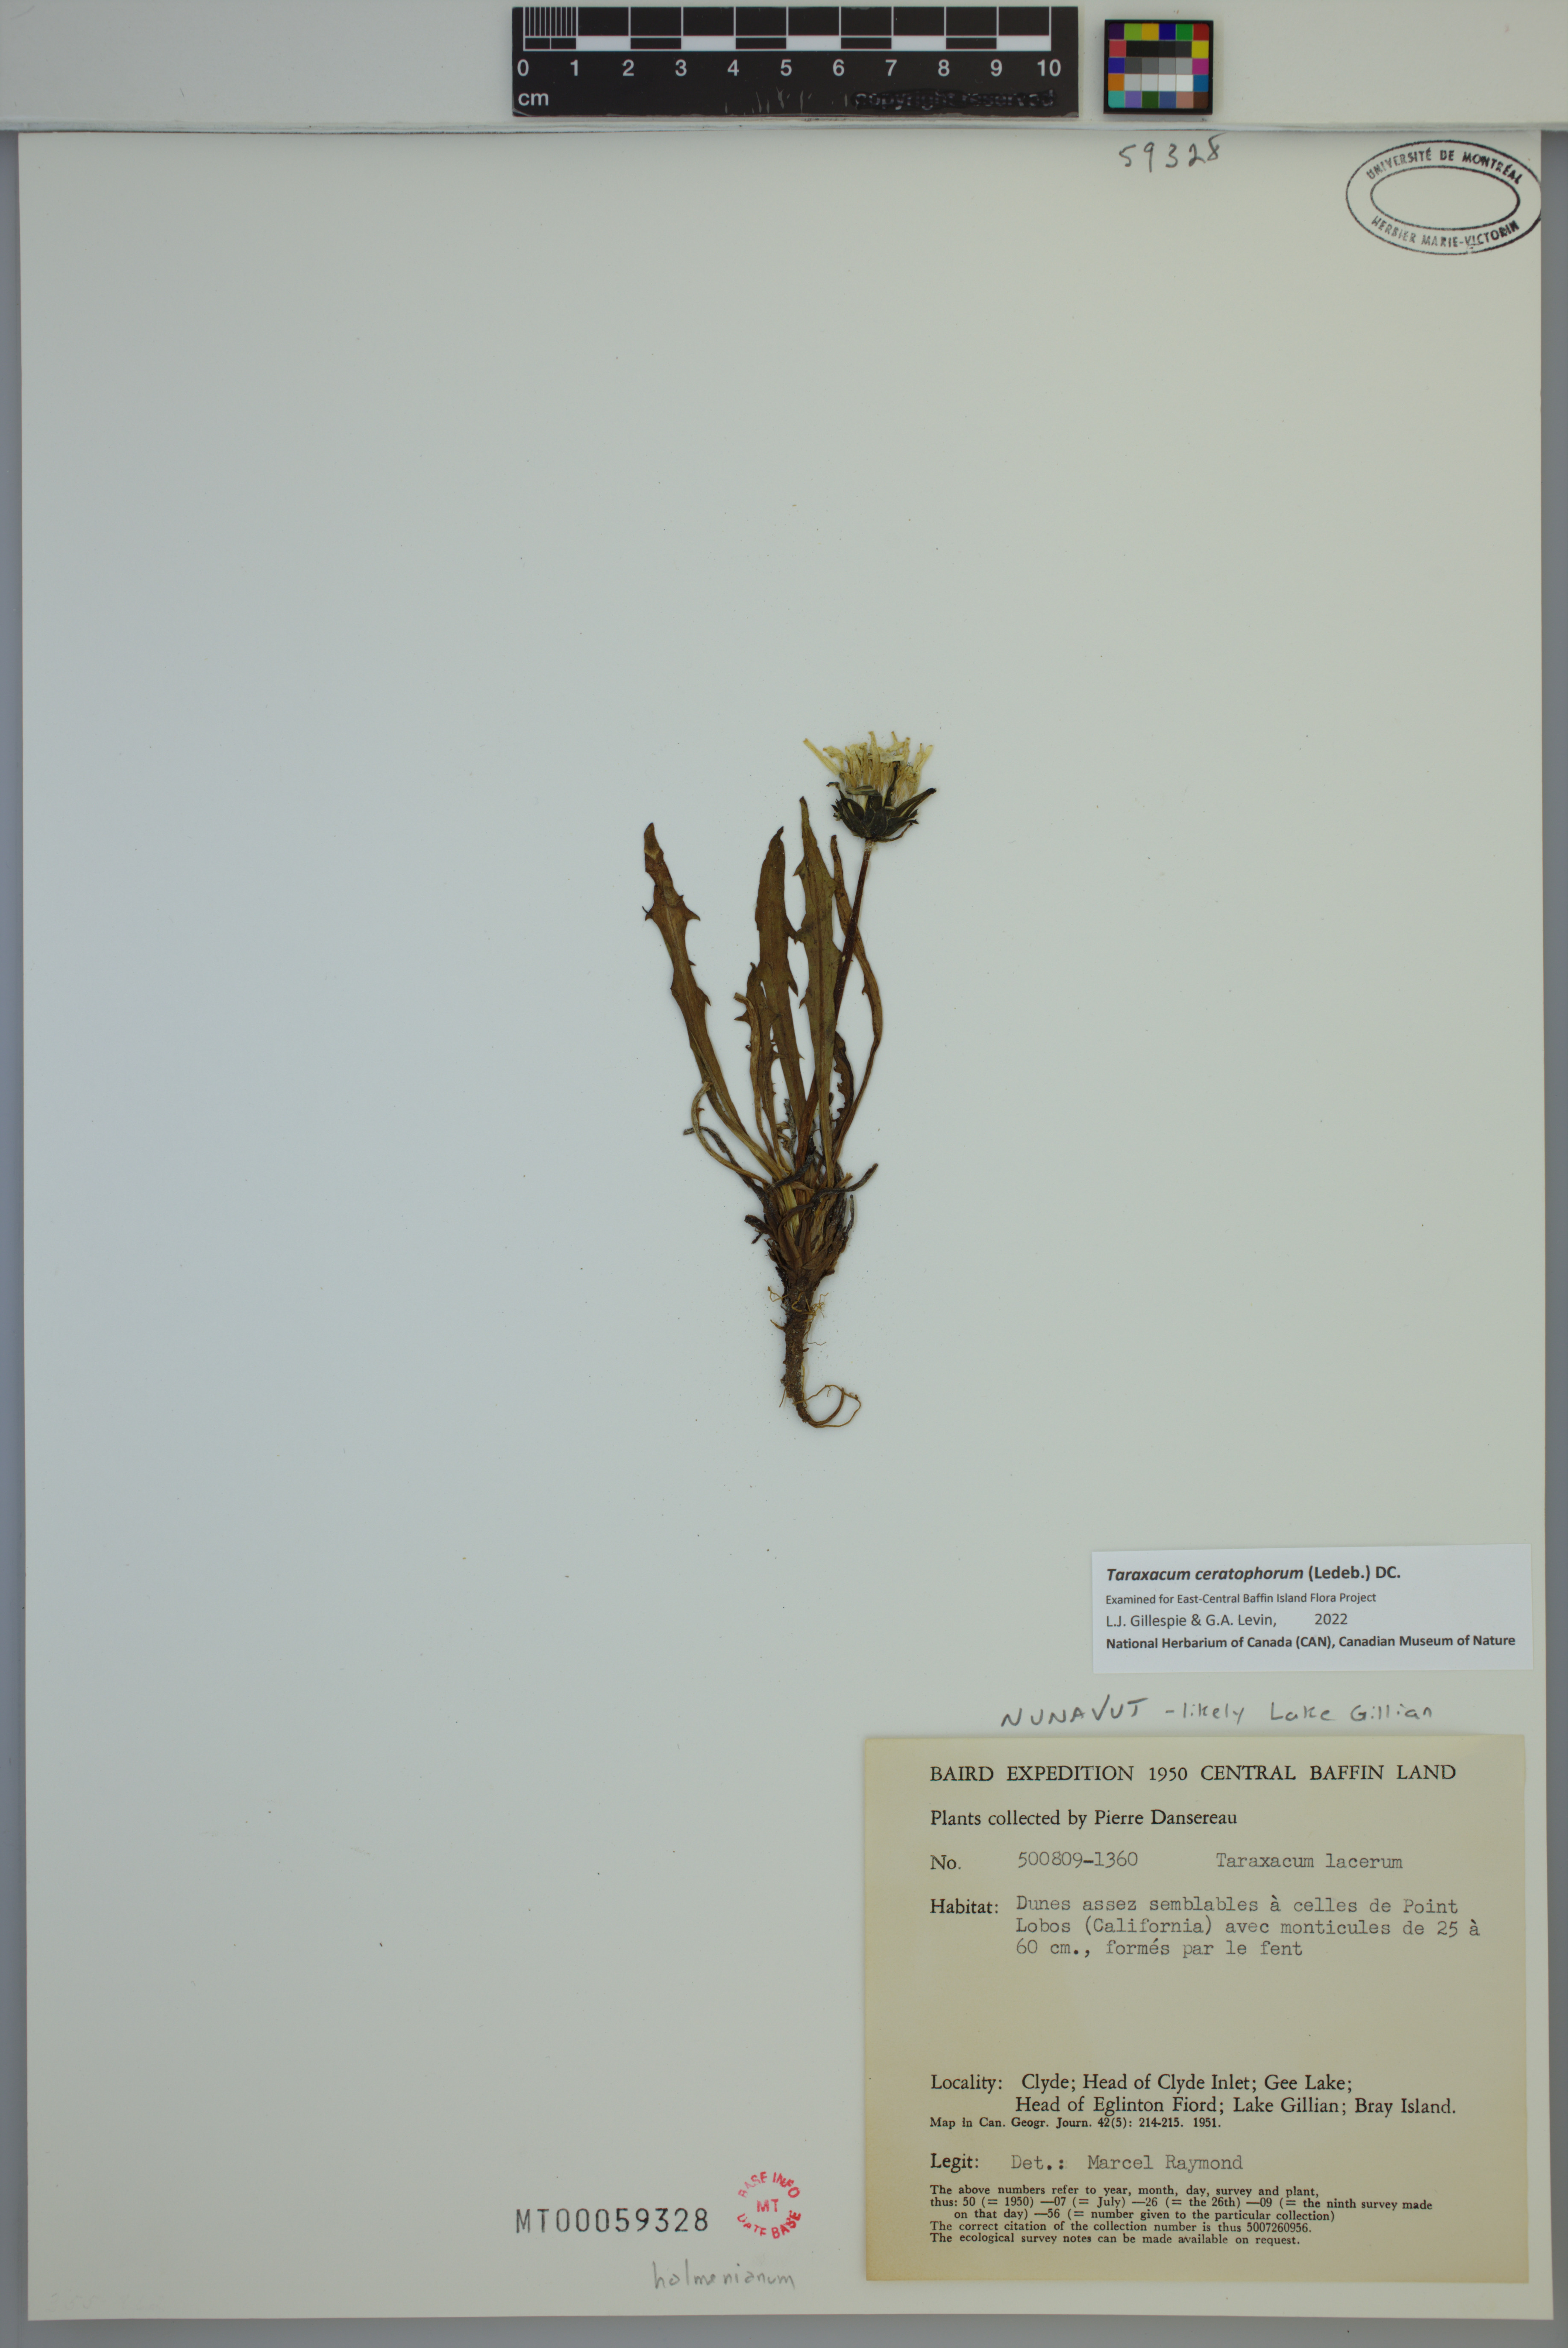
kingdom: Plantae
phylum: Tracheophyta
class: Magnoliopsida
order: Asterales
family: Asteraceae
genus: Taraxacum
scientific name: Taraxacum ceratophorum
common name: Horn-bearing dandelion
